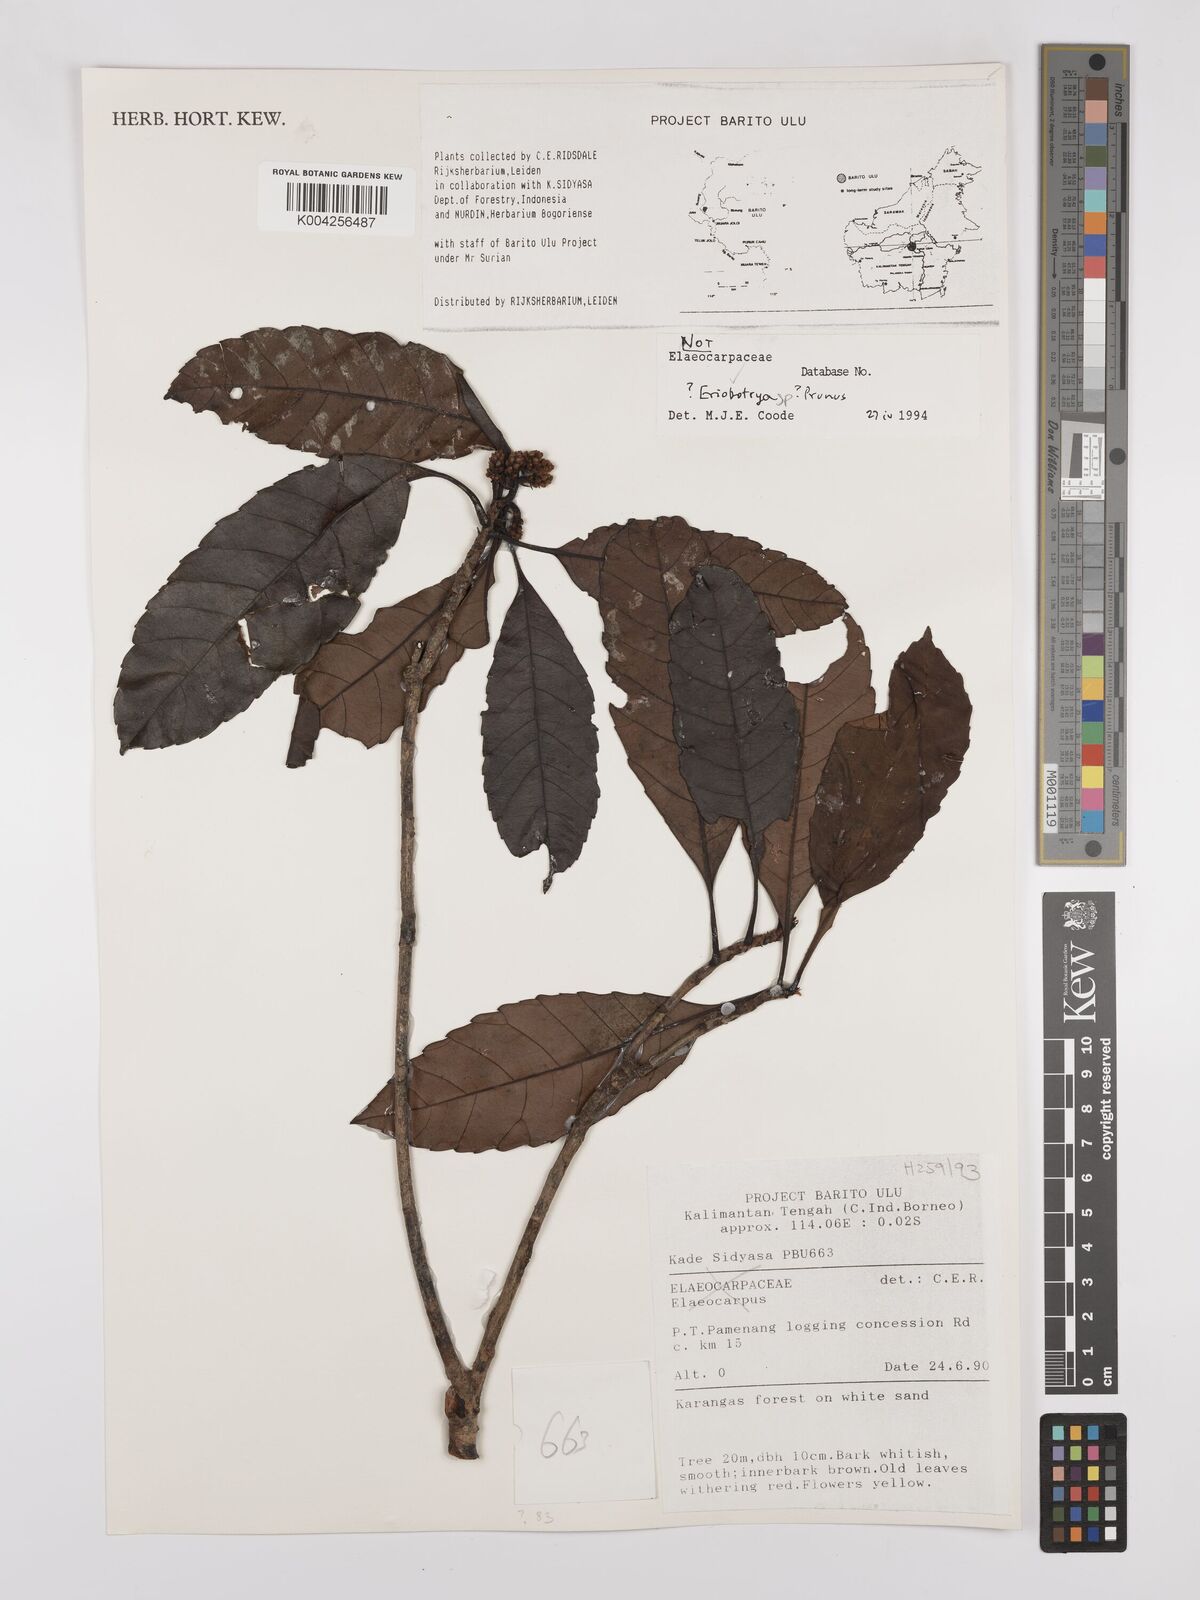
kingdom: Plantae
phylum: Tracheophyta
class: Magnoliopsida
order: Rosales
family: Rosaceae
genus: Rhaphiolepis
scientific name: Rhaphiolepis bengalensis
